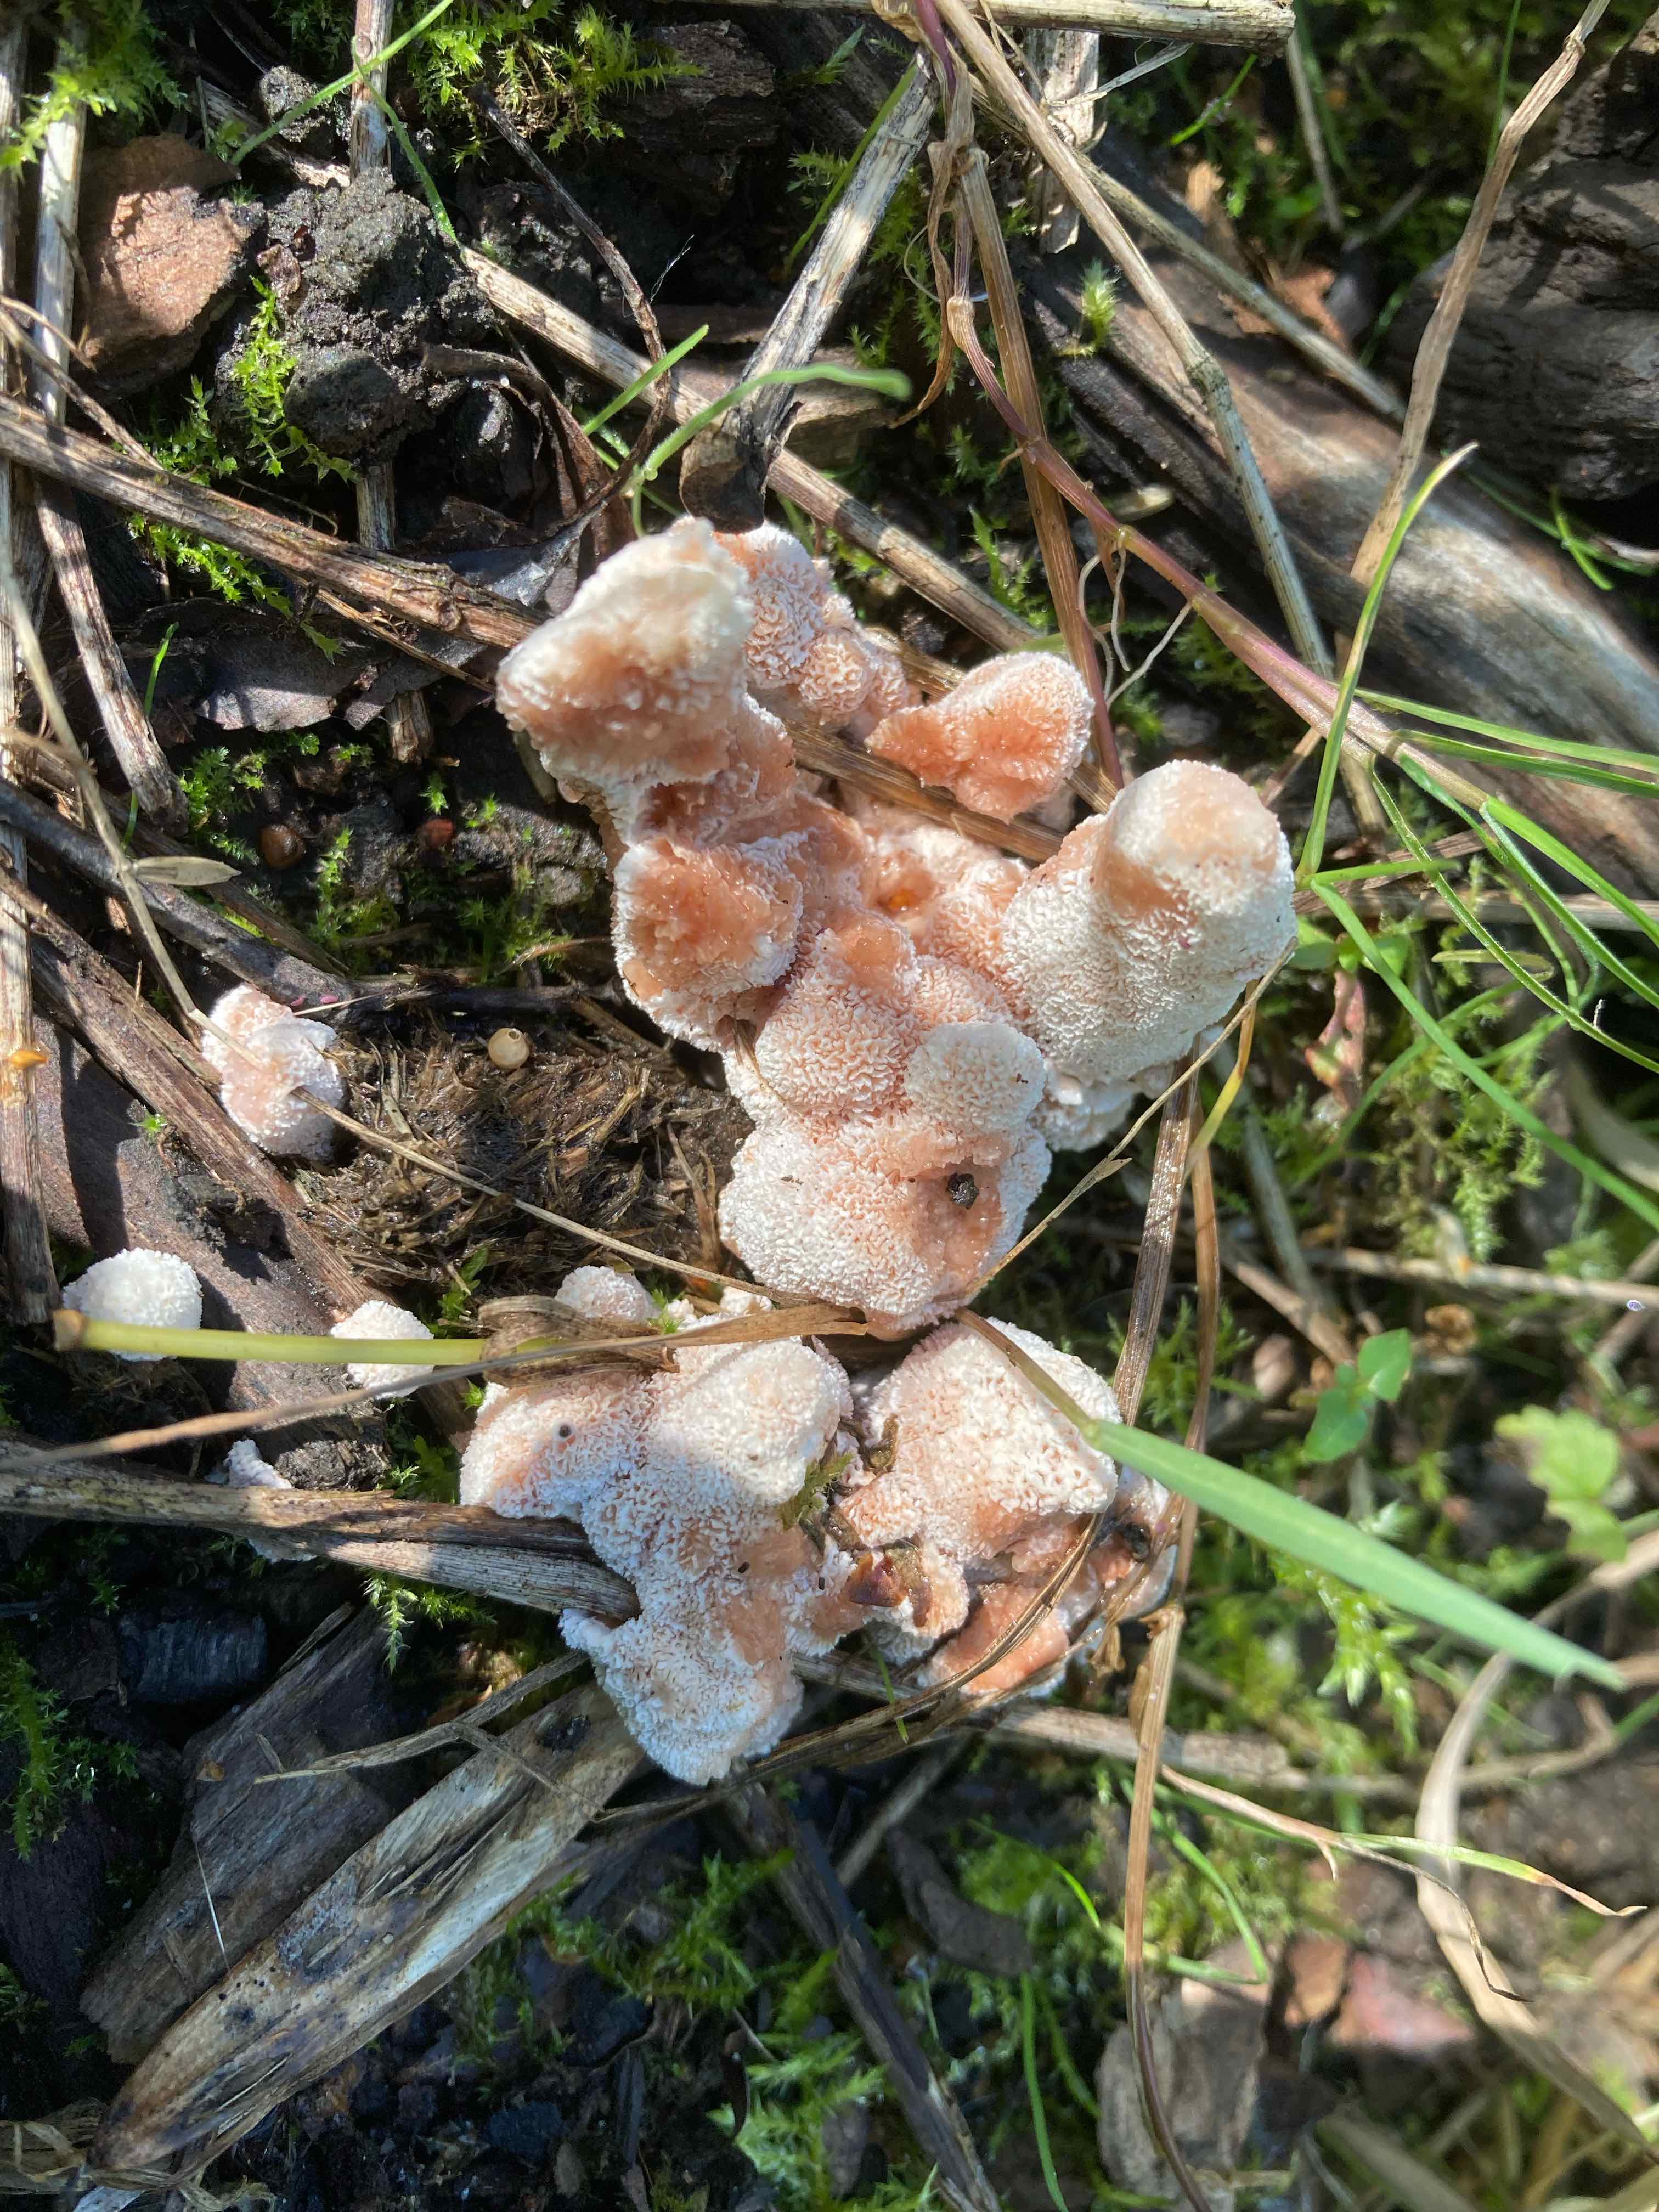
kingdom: Fungi
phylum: Basidiomycota
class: Agaricomycetes
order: Polyporales
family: Podoscyphaceae
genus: Abortiporus
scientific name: Abortiporus biennis
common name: rødmende pjalteporesvamp
